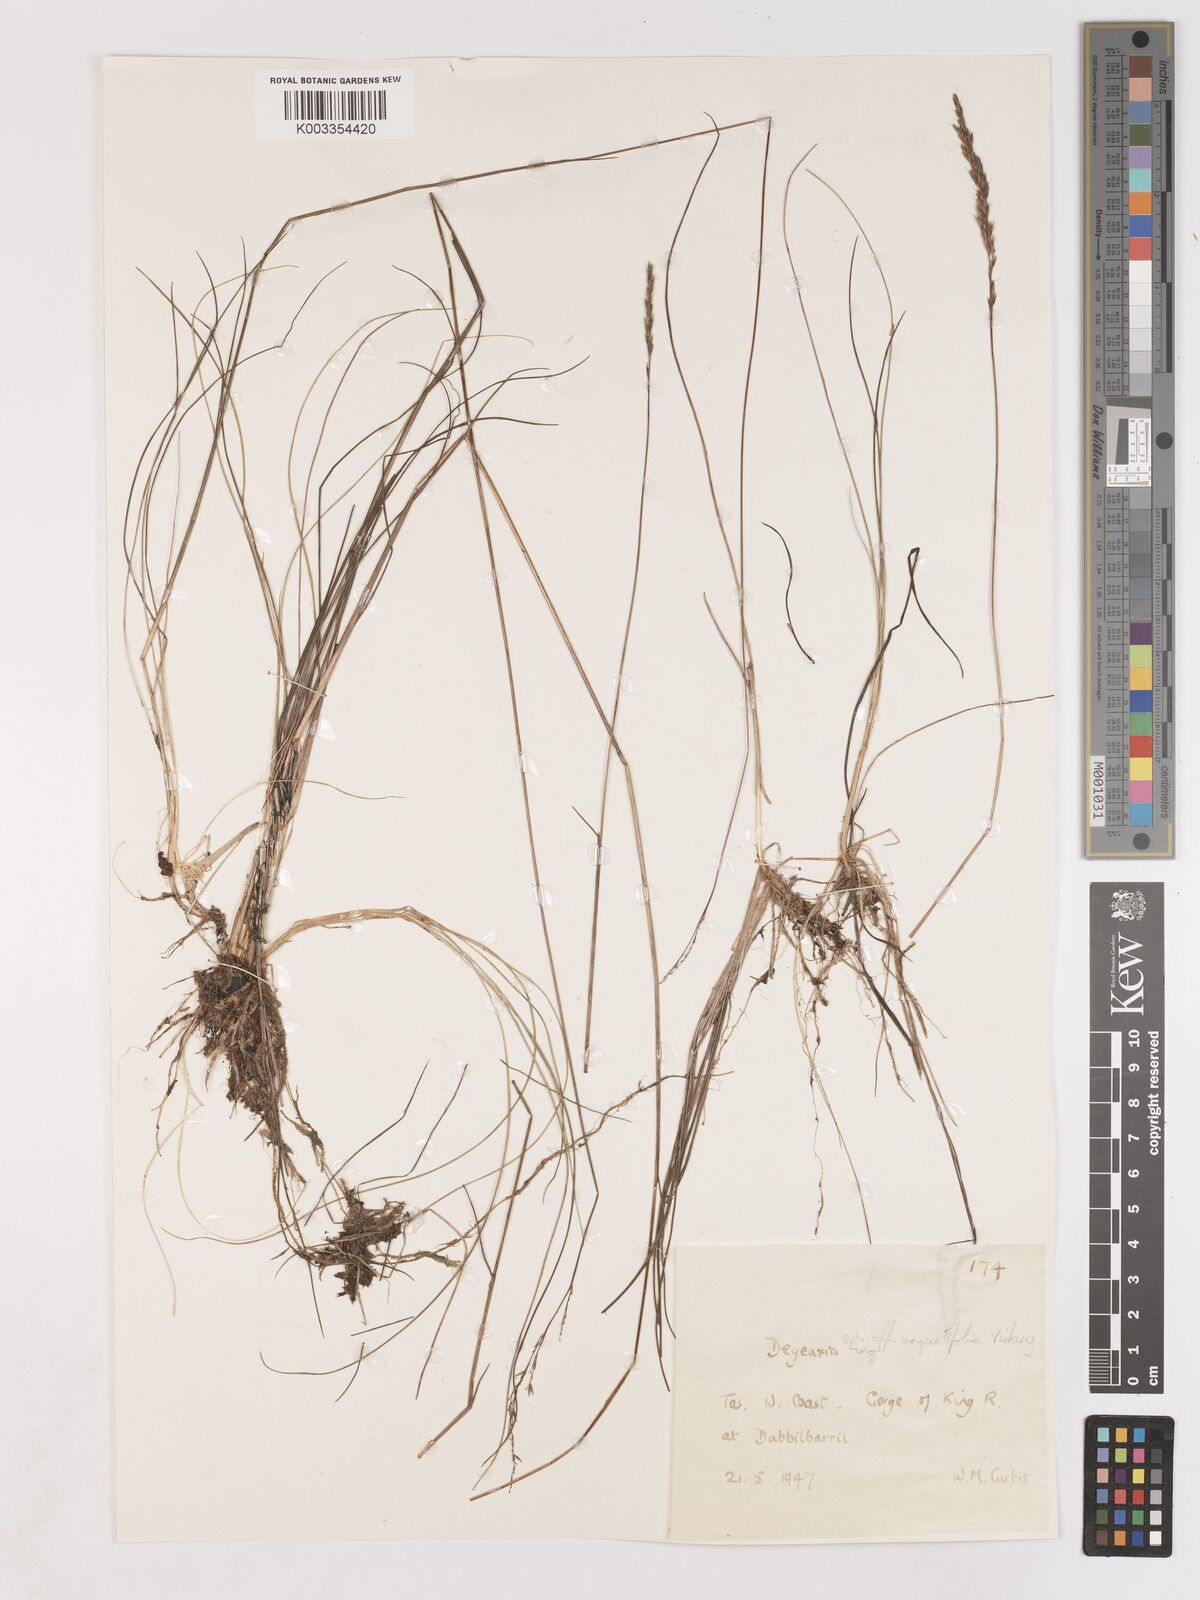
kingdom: Plantae
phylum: Tracheophyta
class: Liliopsida
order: Poales
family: Poaceae
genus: Calamagrostis
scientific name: Calamagrostis
